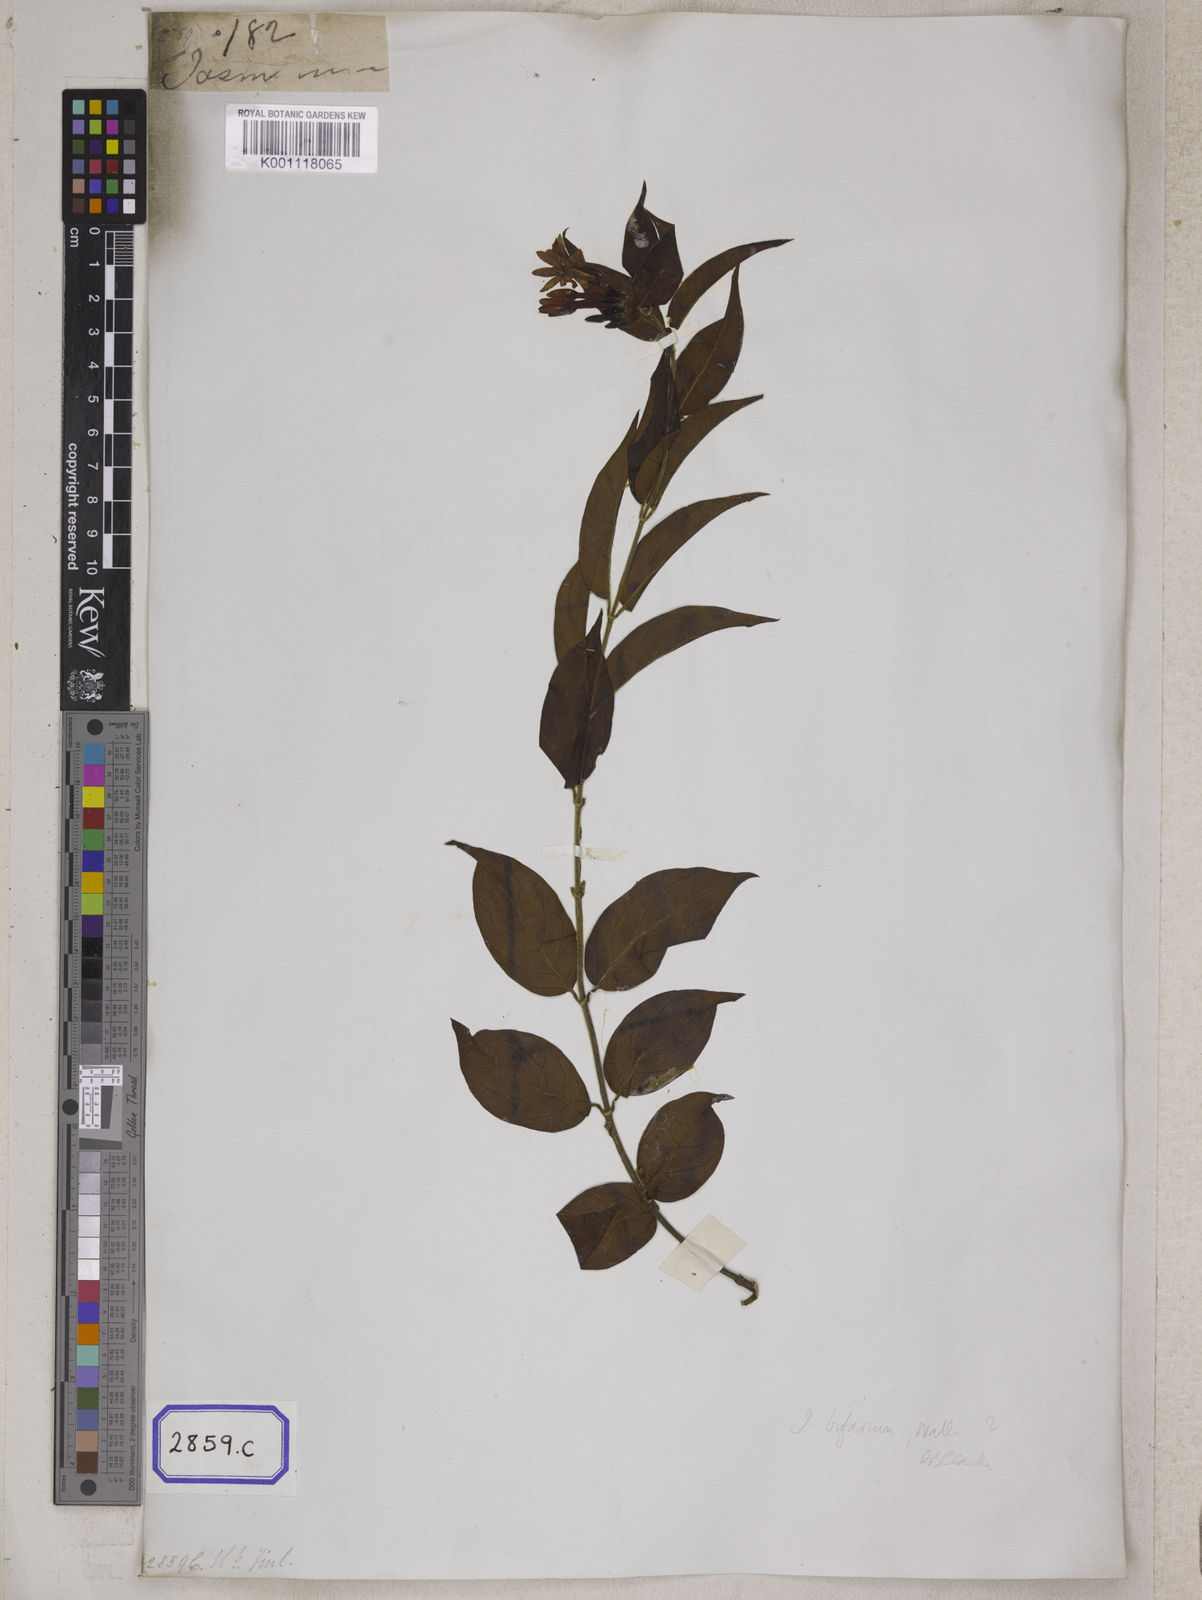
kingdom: Plantae
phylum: Tracheophyta
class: Magnoliopsida
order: Lamiales
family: Oleaceae
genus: Jasminum
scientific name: Jasminum
